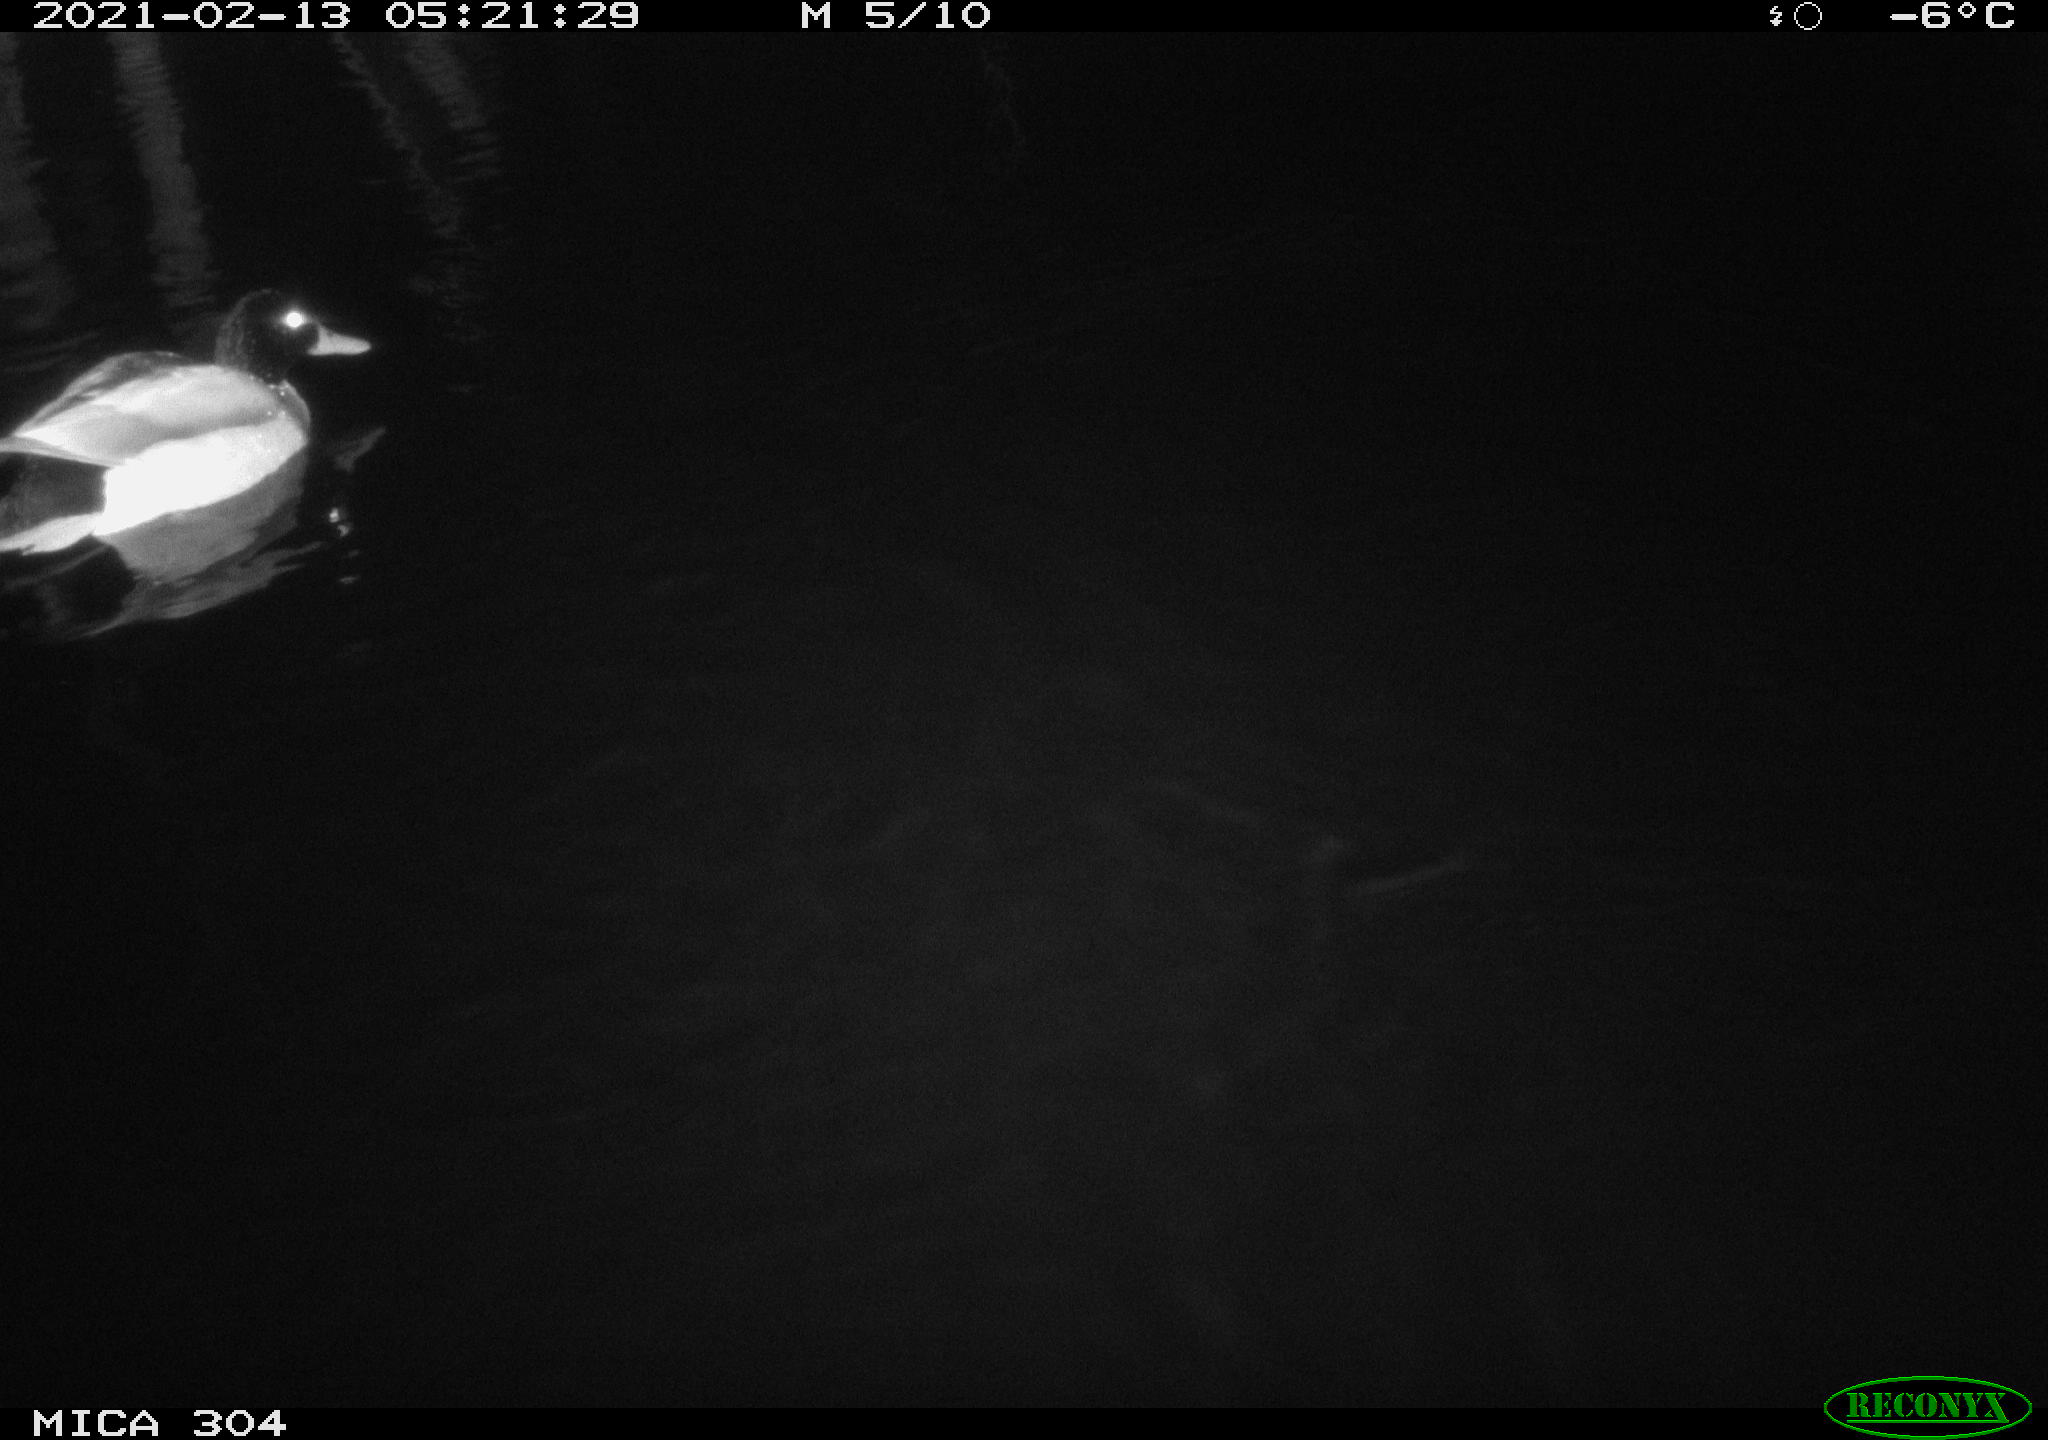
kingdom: Animalia
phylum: Chordata
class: Aves
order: Anseriformes
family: Anatidae
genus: Anas
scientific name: Anas platyrhynchos
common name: Mallard
